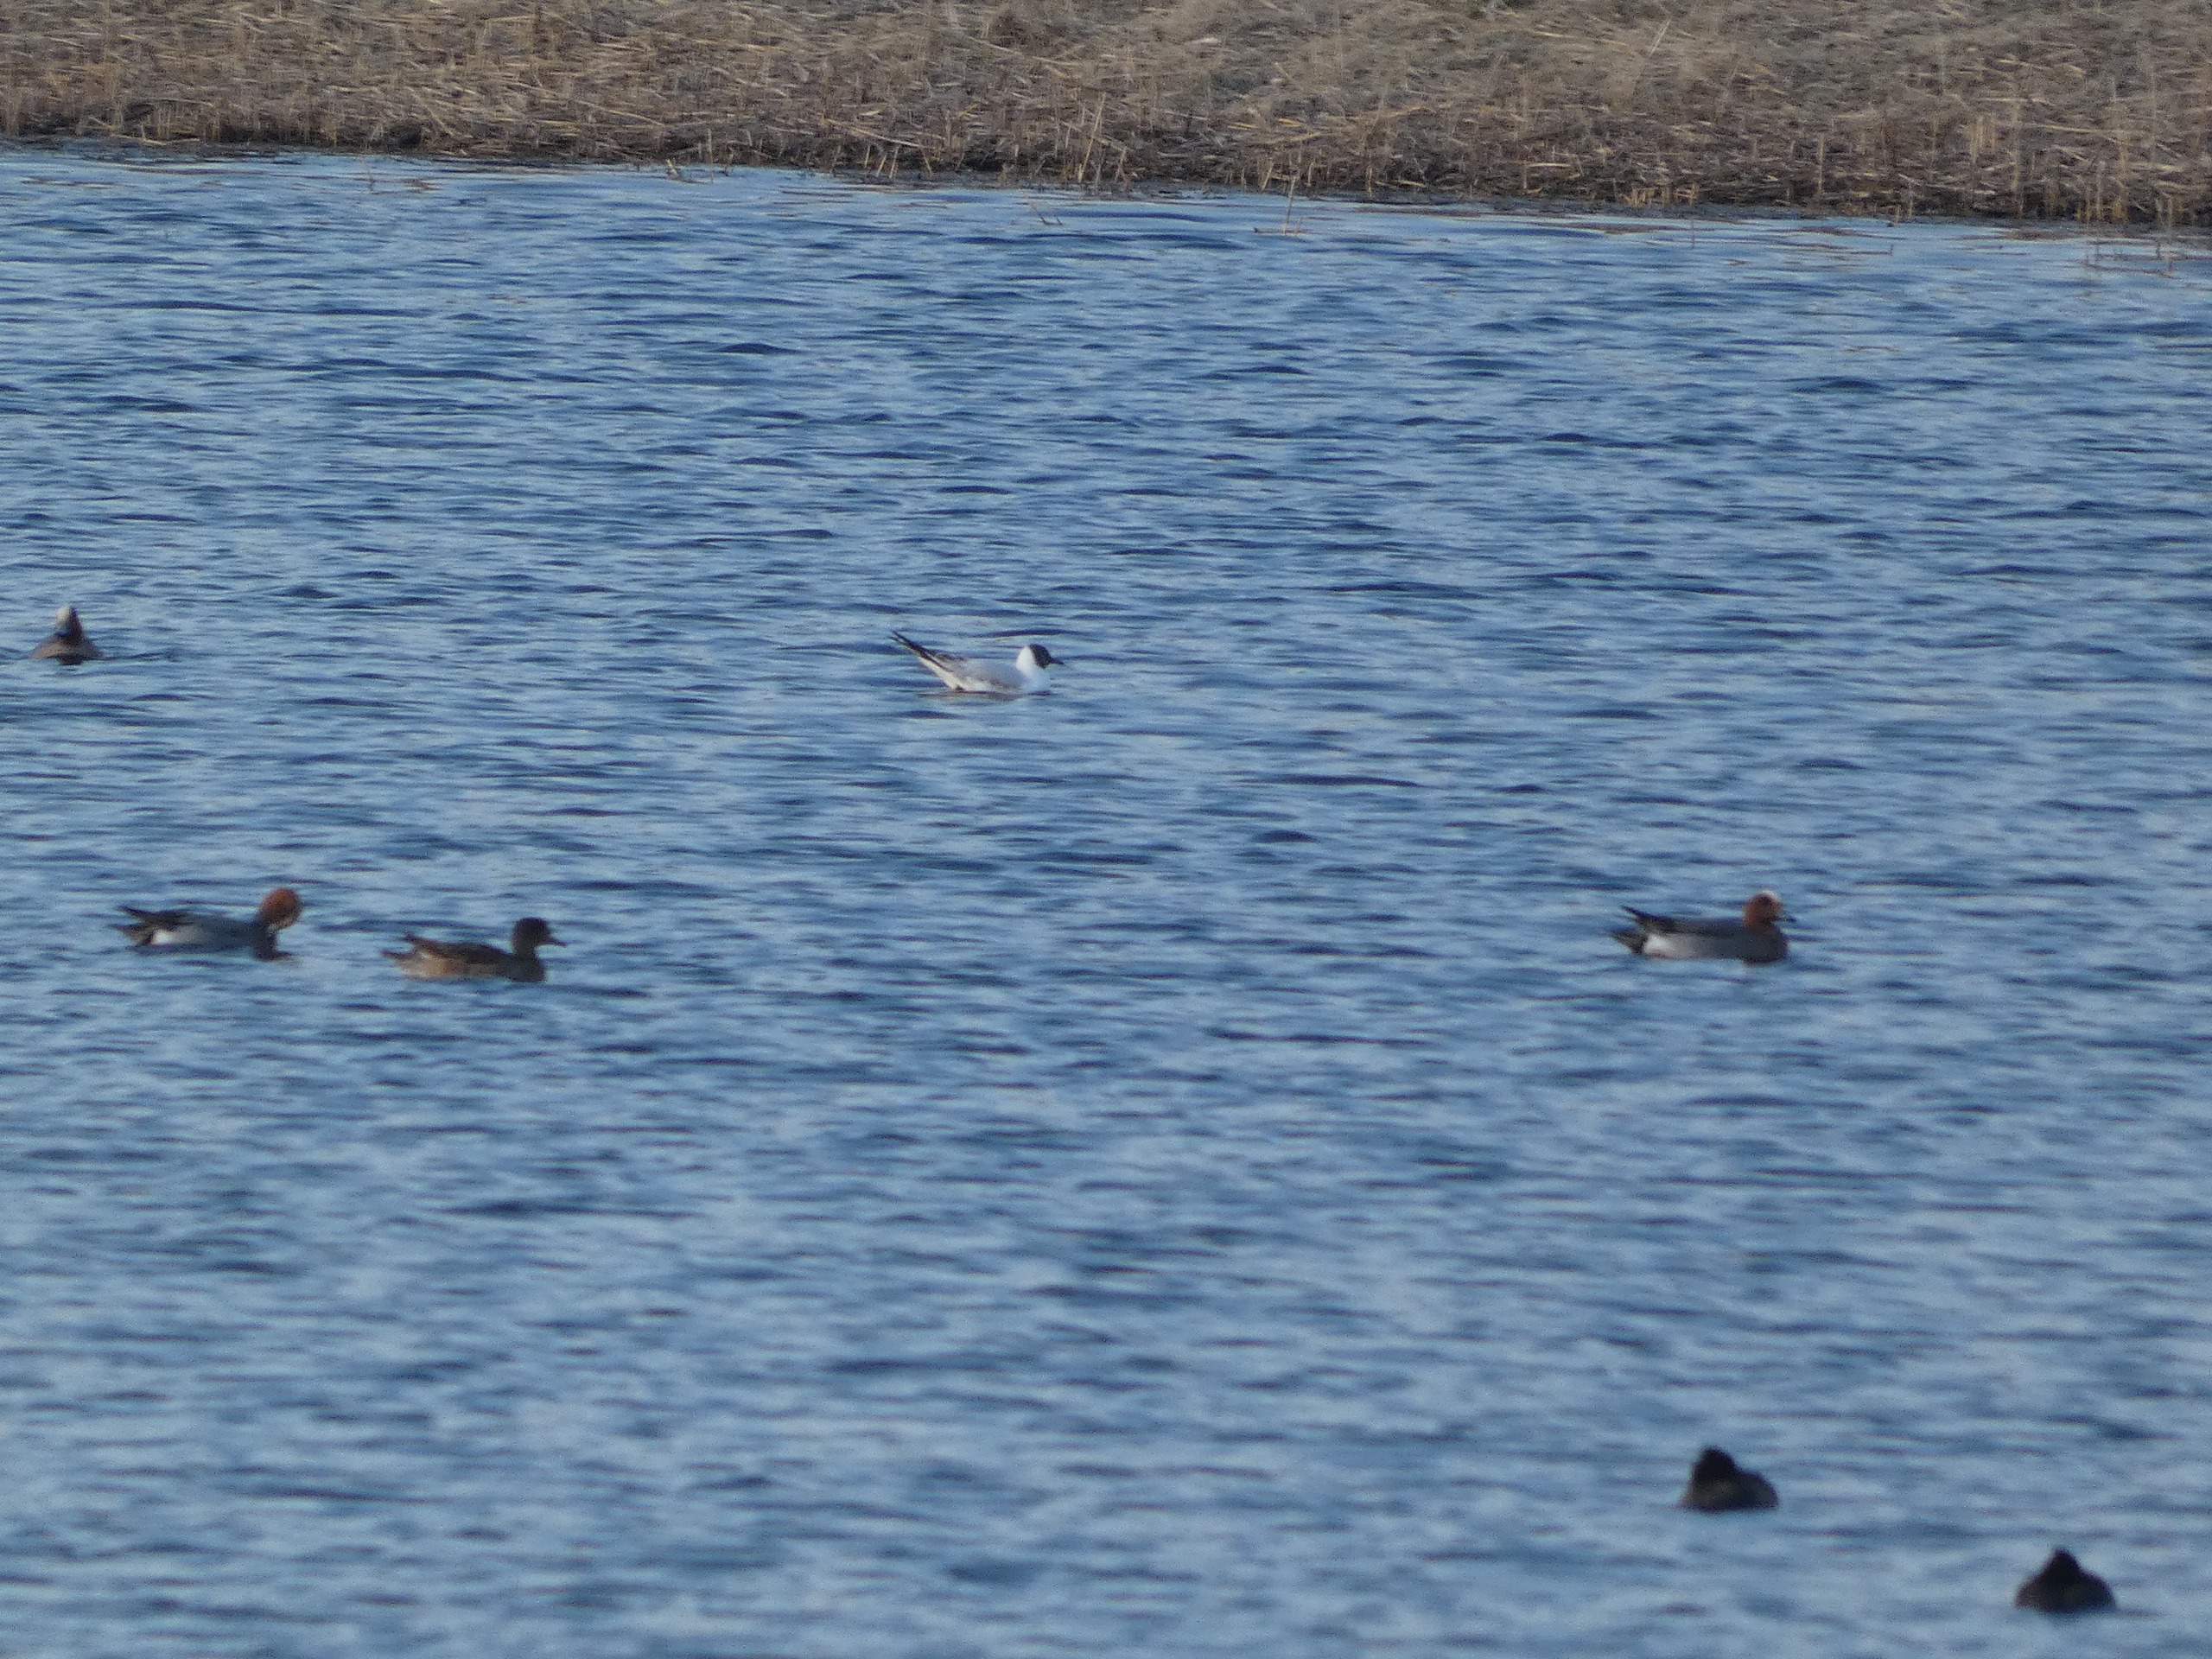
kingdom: Animalia
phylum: Chordata
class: Aves
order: Charadriiformes
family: Laridae
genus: Chroicocephalus
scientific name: Chroicocephalus ridibundus
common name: Hættemåge
